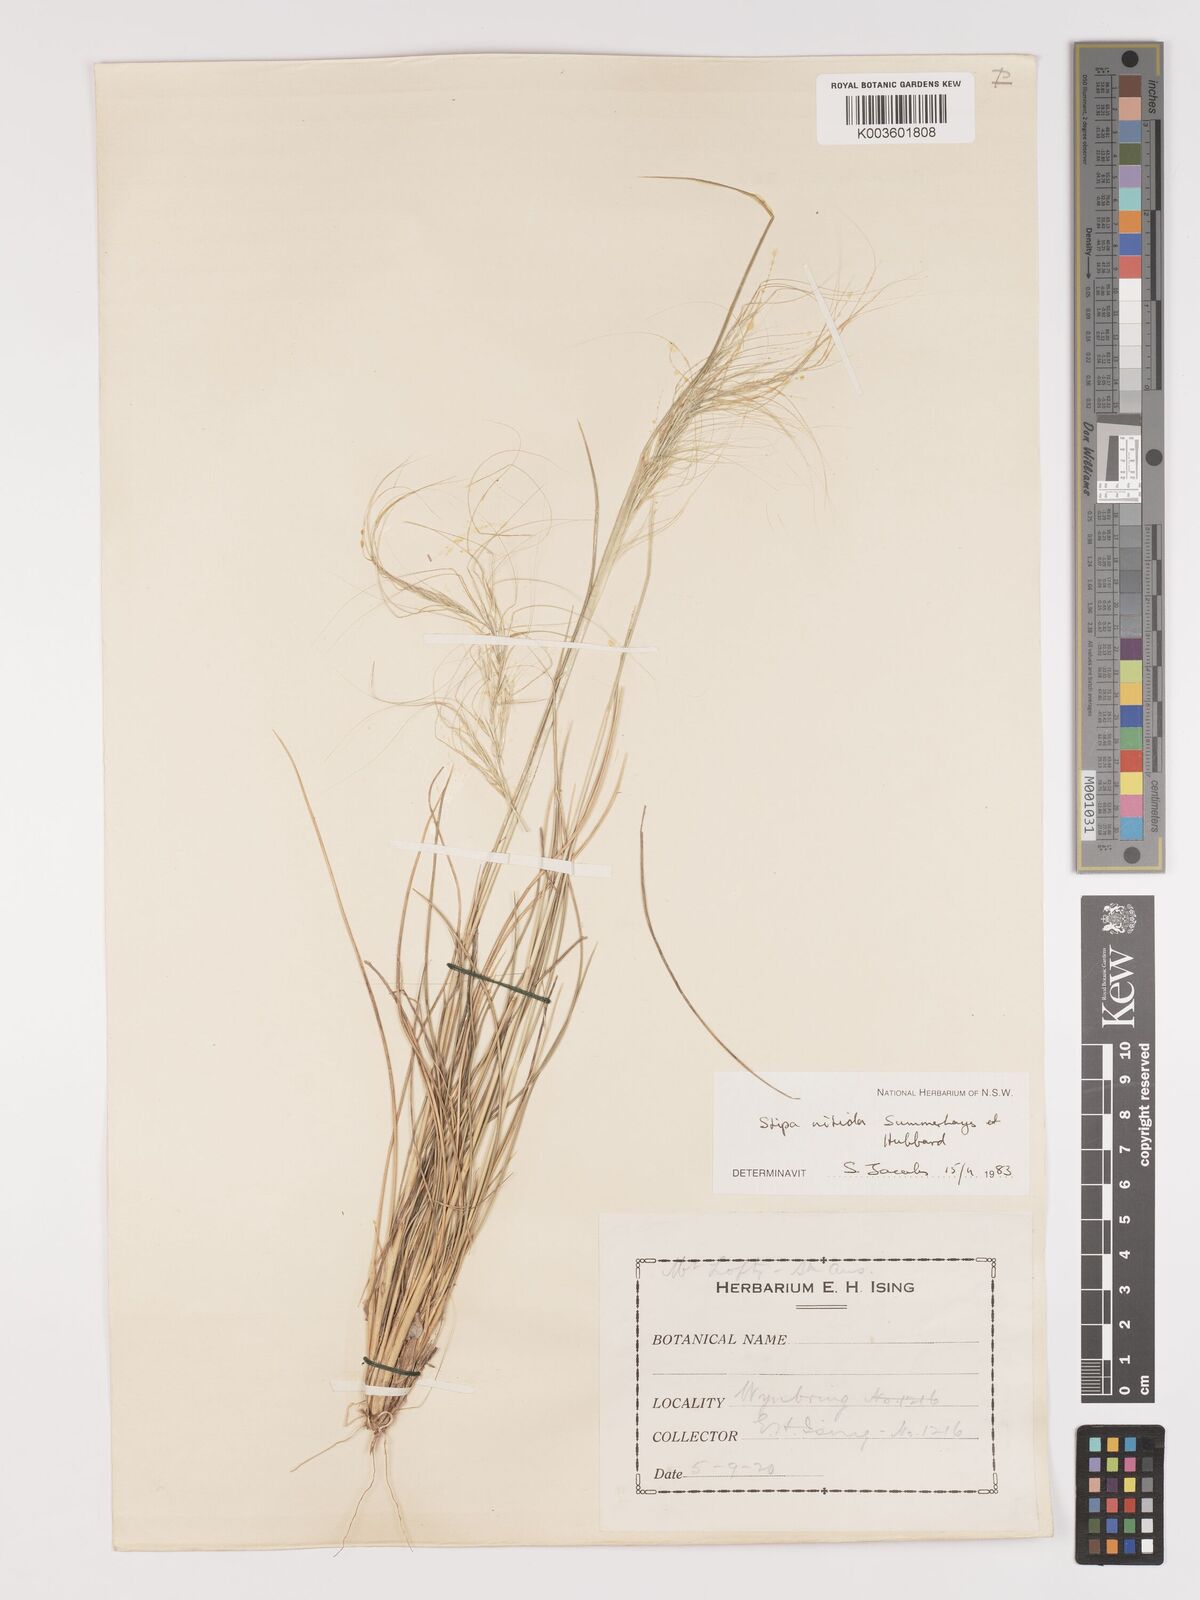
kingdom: Plantae
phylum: Tracheophyta
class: Liliopsida
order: Poales
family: Poaceae
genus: Austrostipa
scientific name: Austrostipa nitida
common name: Balcarra grass
